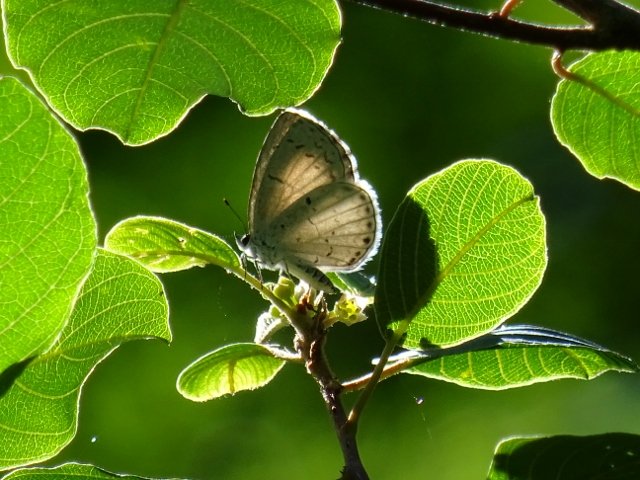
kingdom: Animalia
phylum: Arthropoda
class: Insecta
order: Lepidoptera
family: Lycaenidae
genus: Celastrina
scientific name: Celastrina
